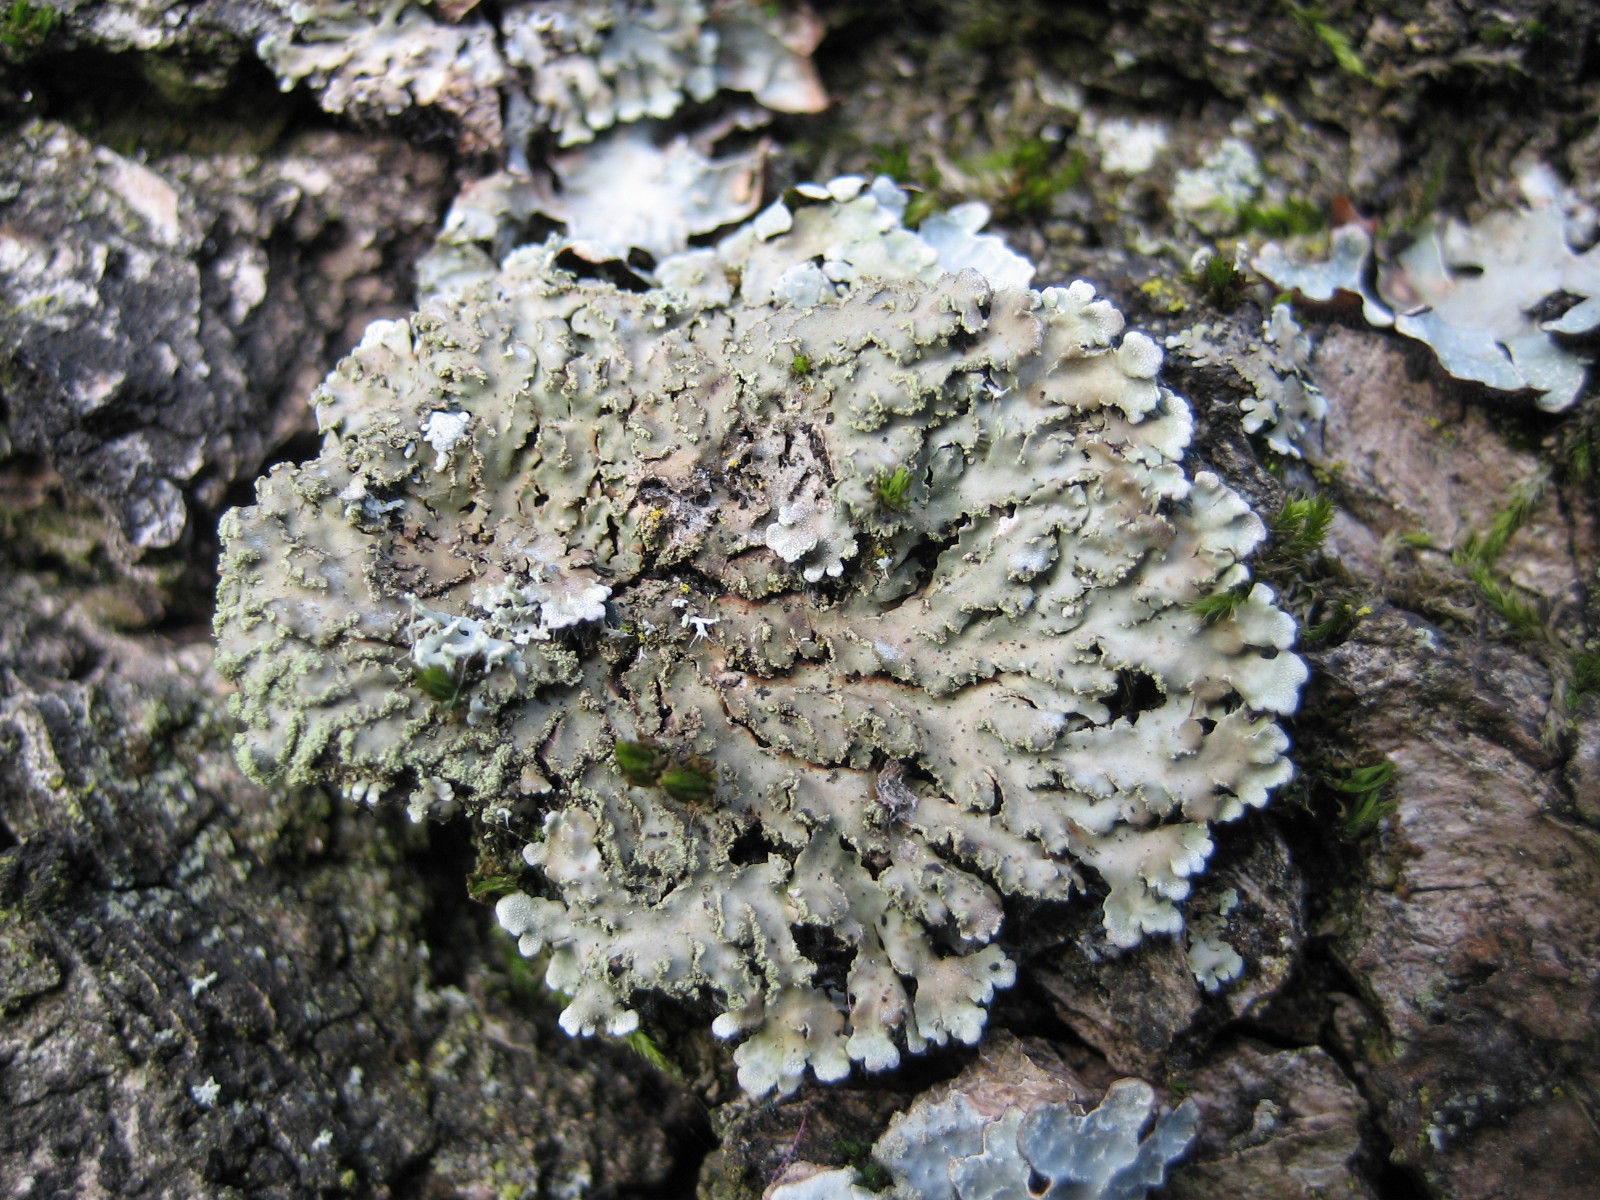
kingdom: Fungi
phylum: Ascomycota
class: Lecanoromycetes
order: Caliciales
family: Physciaceae
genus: Physconia
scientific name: Physconia enteroxantha
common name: grynet dugrosetlav
